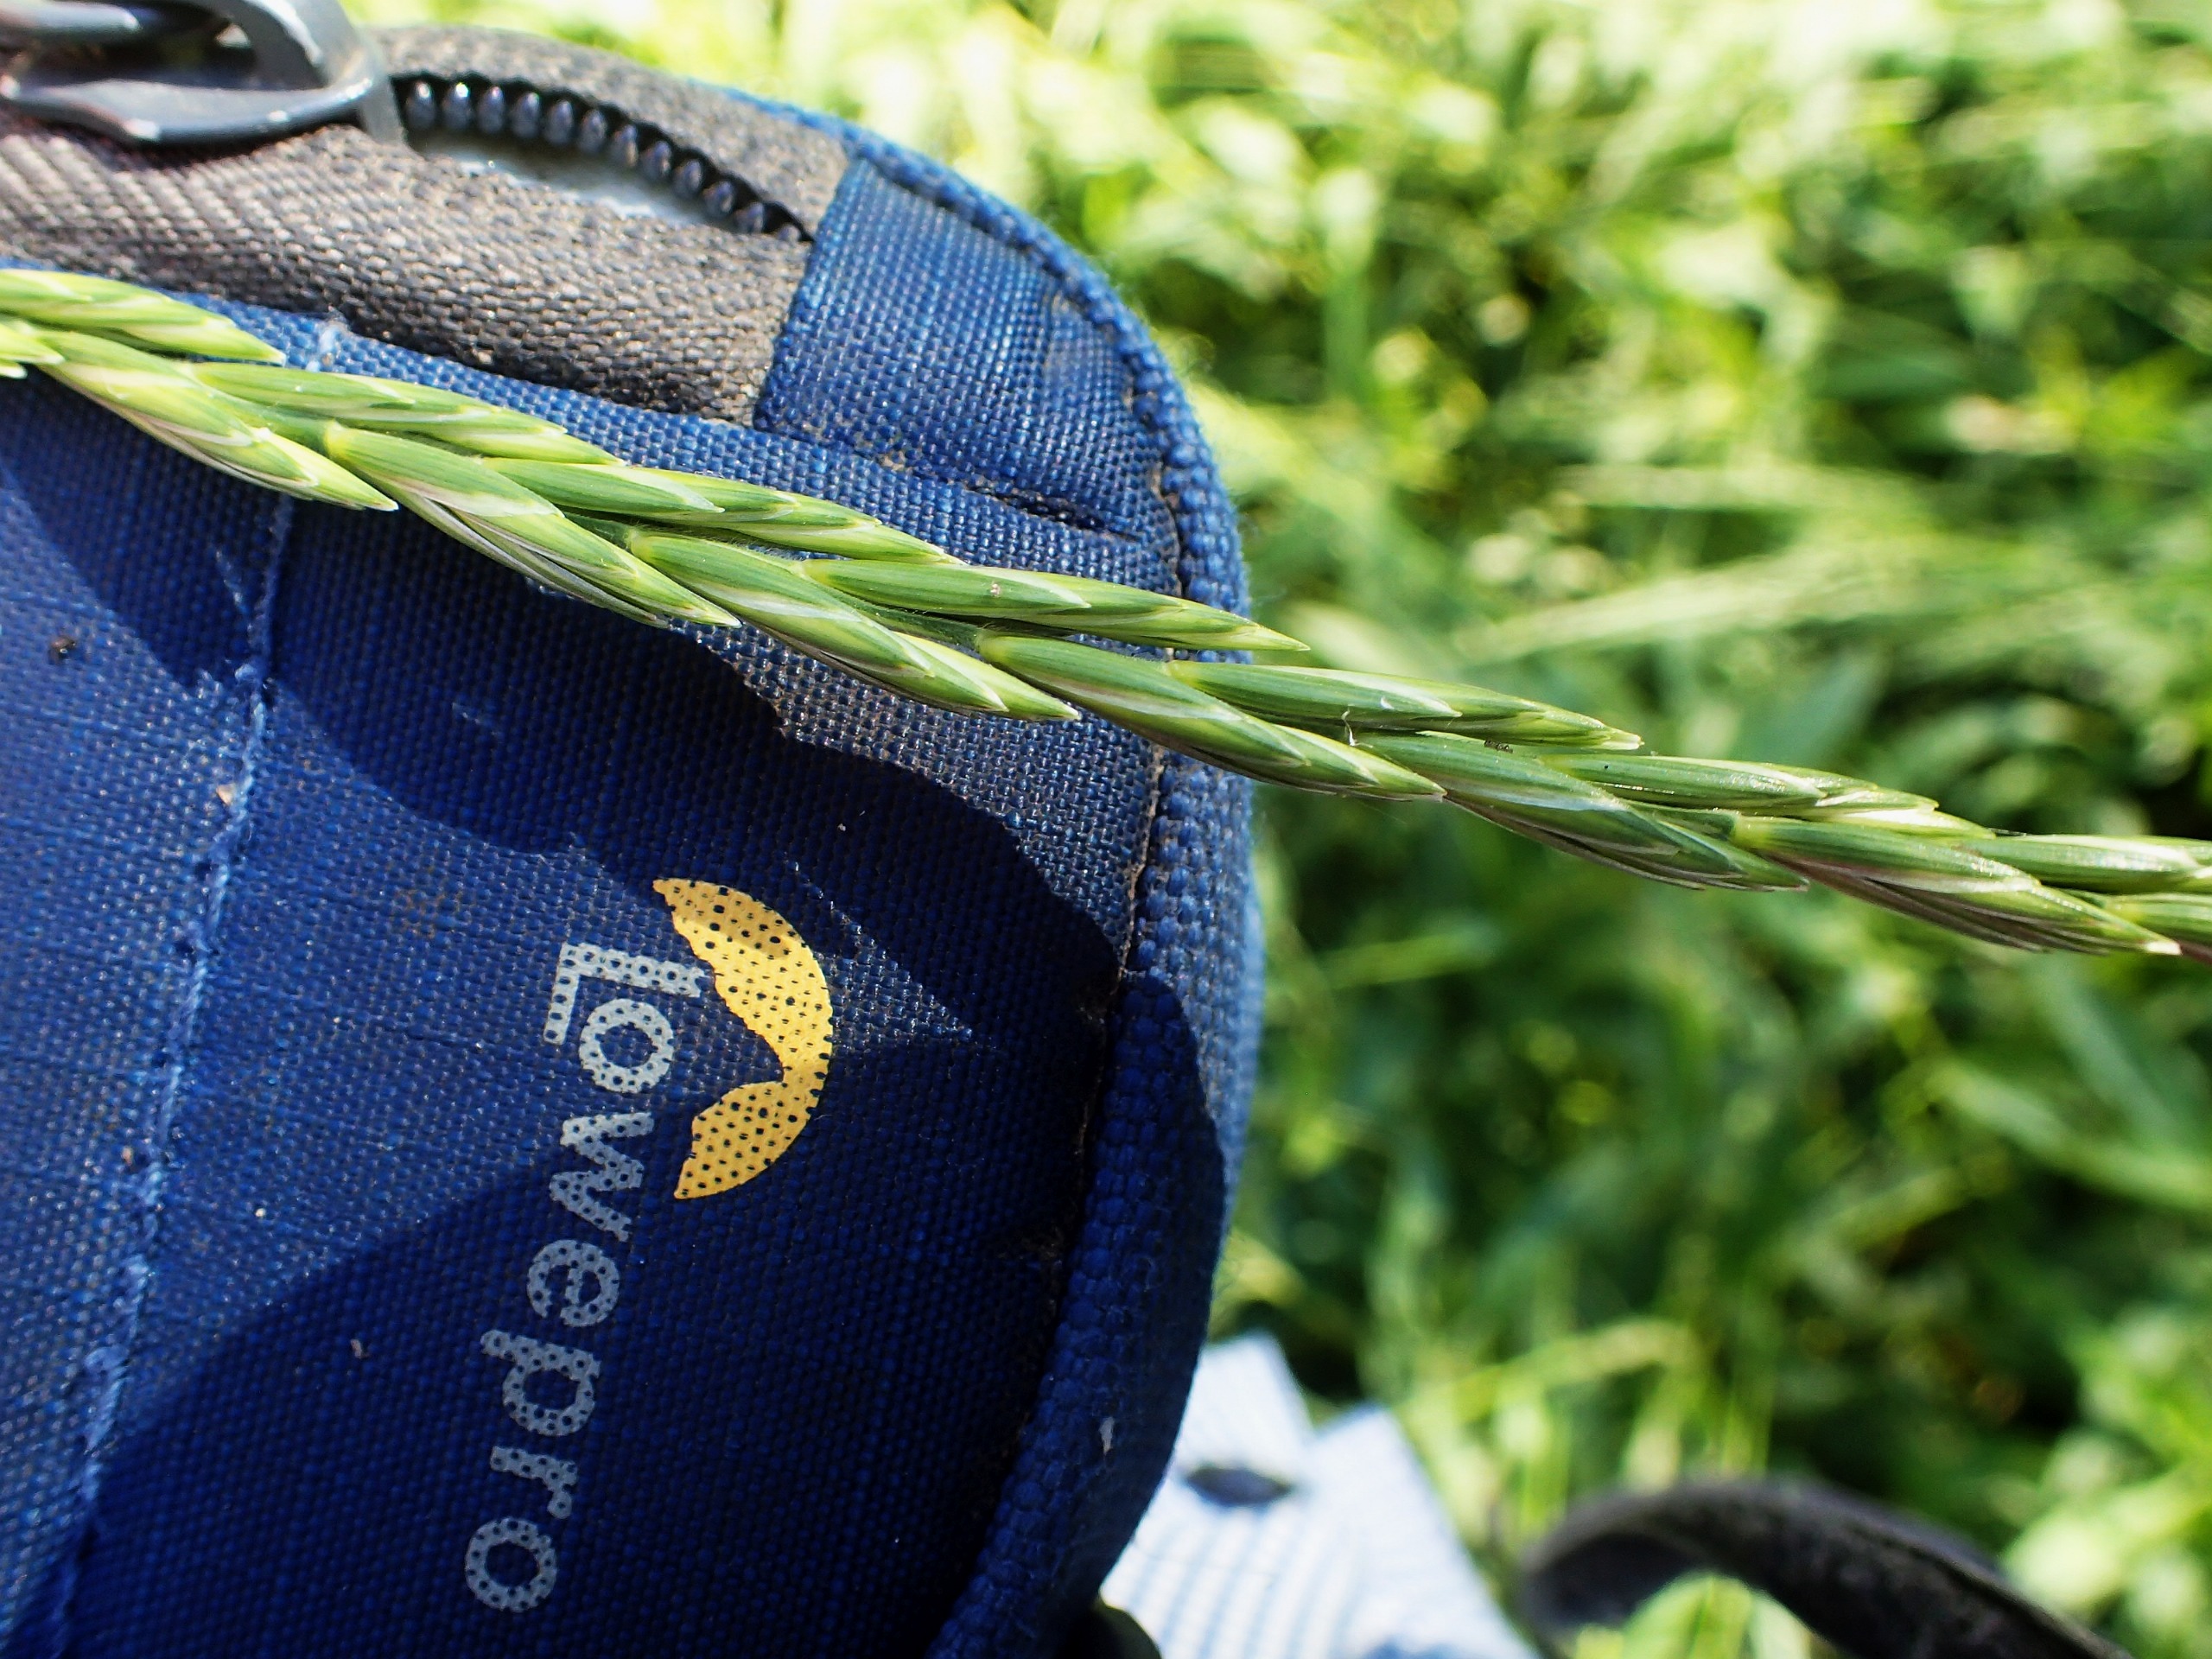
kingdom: Plantae
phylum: Tracheophyta
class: Liliopsida
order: Poales
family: Poaceae
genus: Elymus
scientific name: Elymus repens
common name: Almindelig kvik
